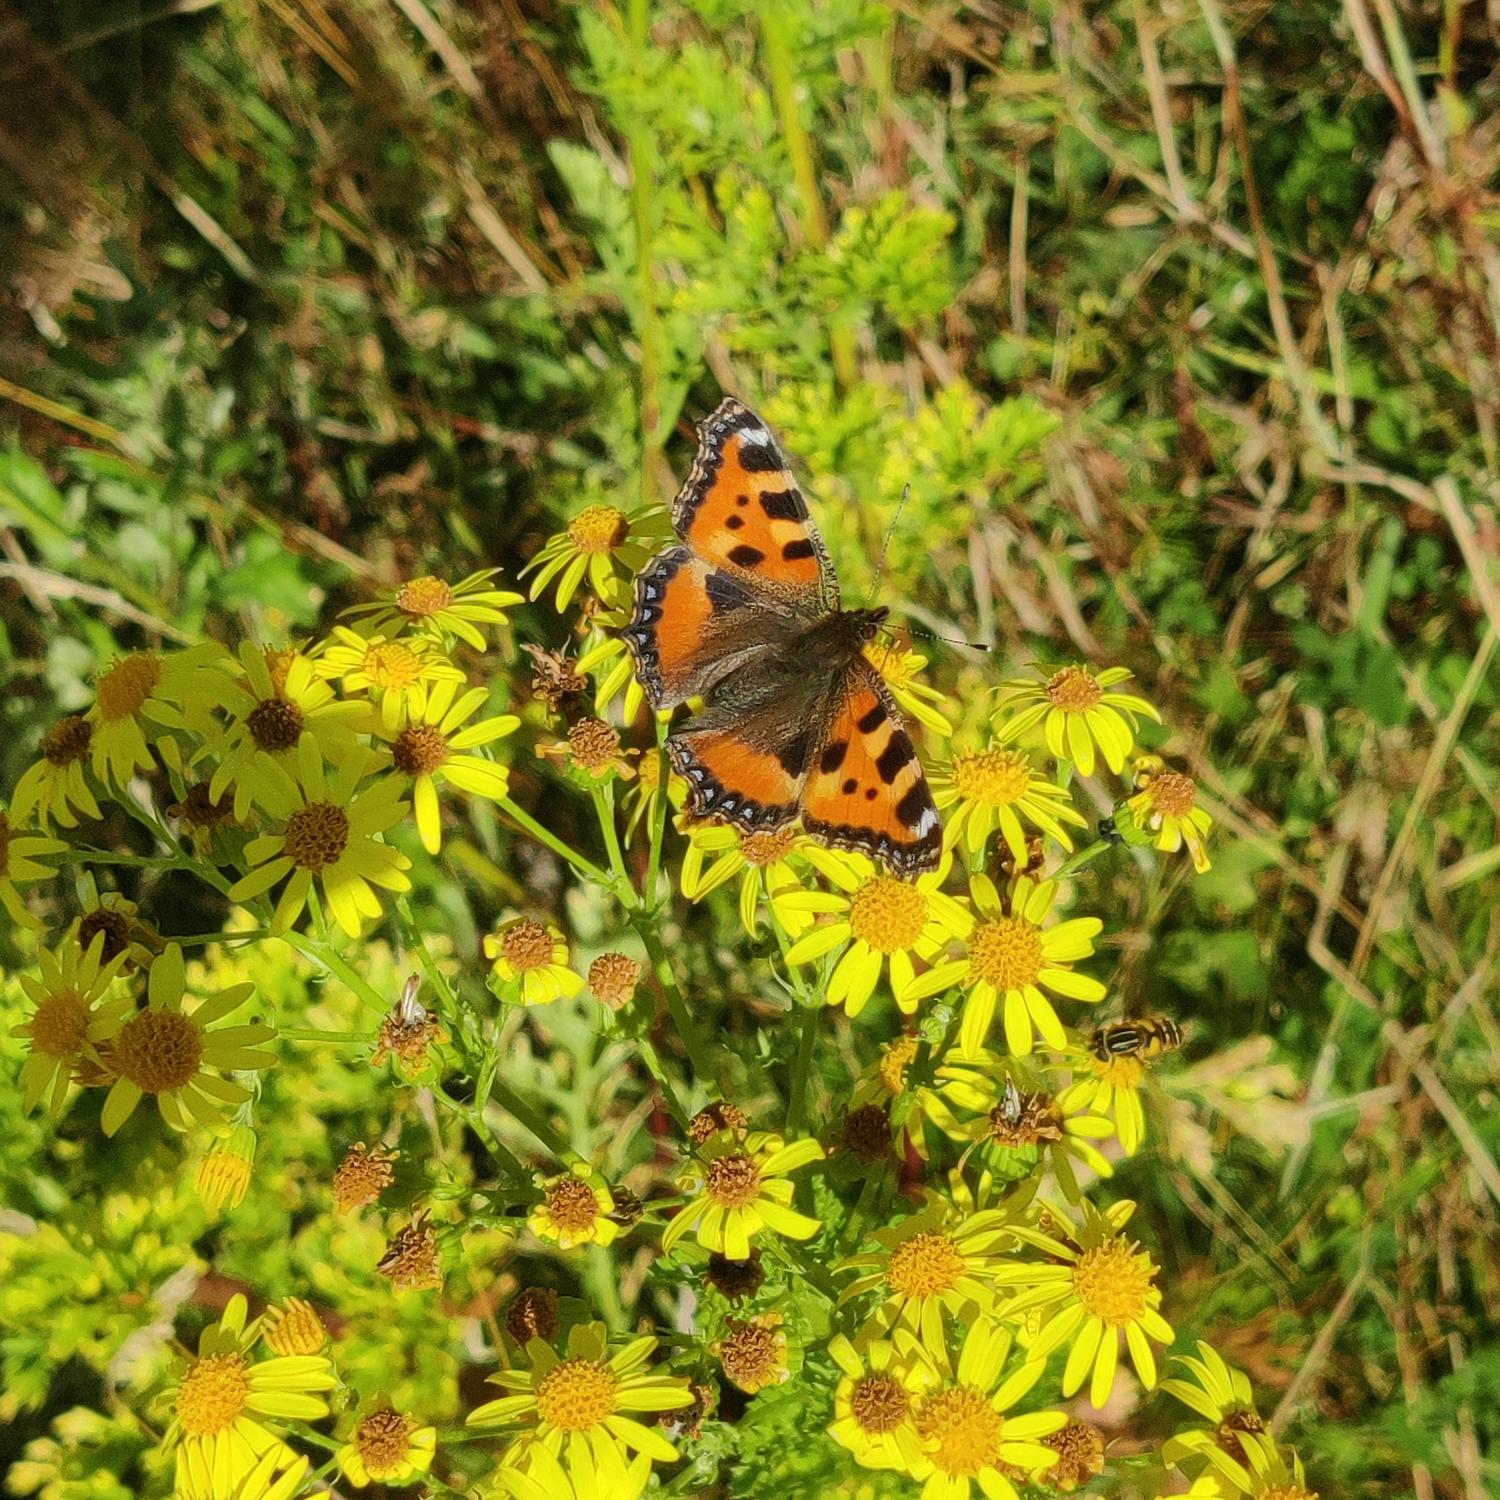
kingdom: Animalia
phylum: Arthropoda
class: Insecta
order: Lepidoptera
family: Nymphalidae
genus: Aglais
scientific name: Aglais urticae
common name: Nældens takvinge
